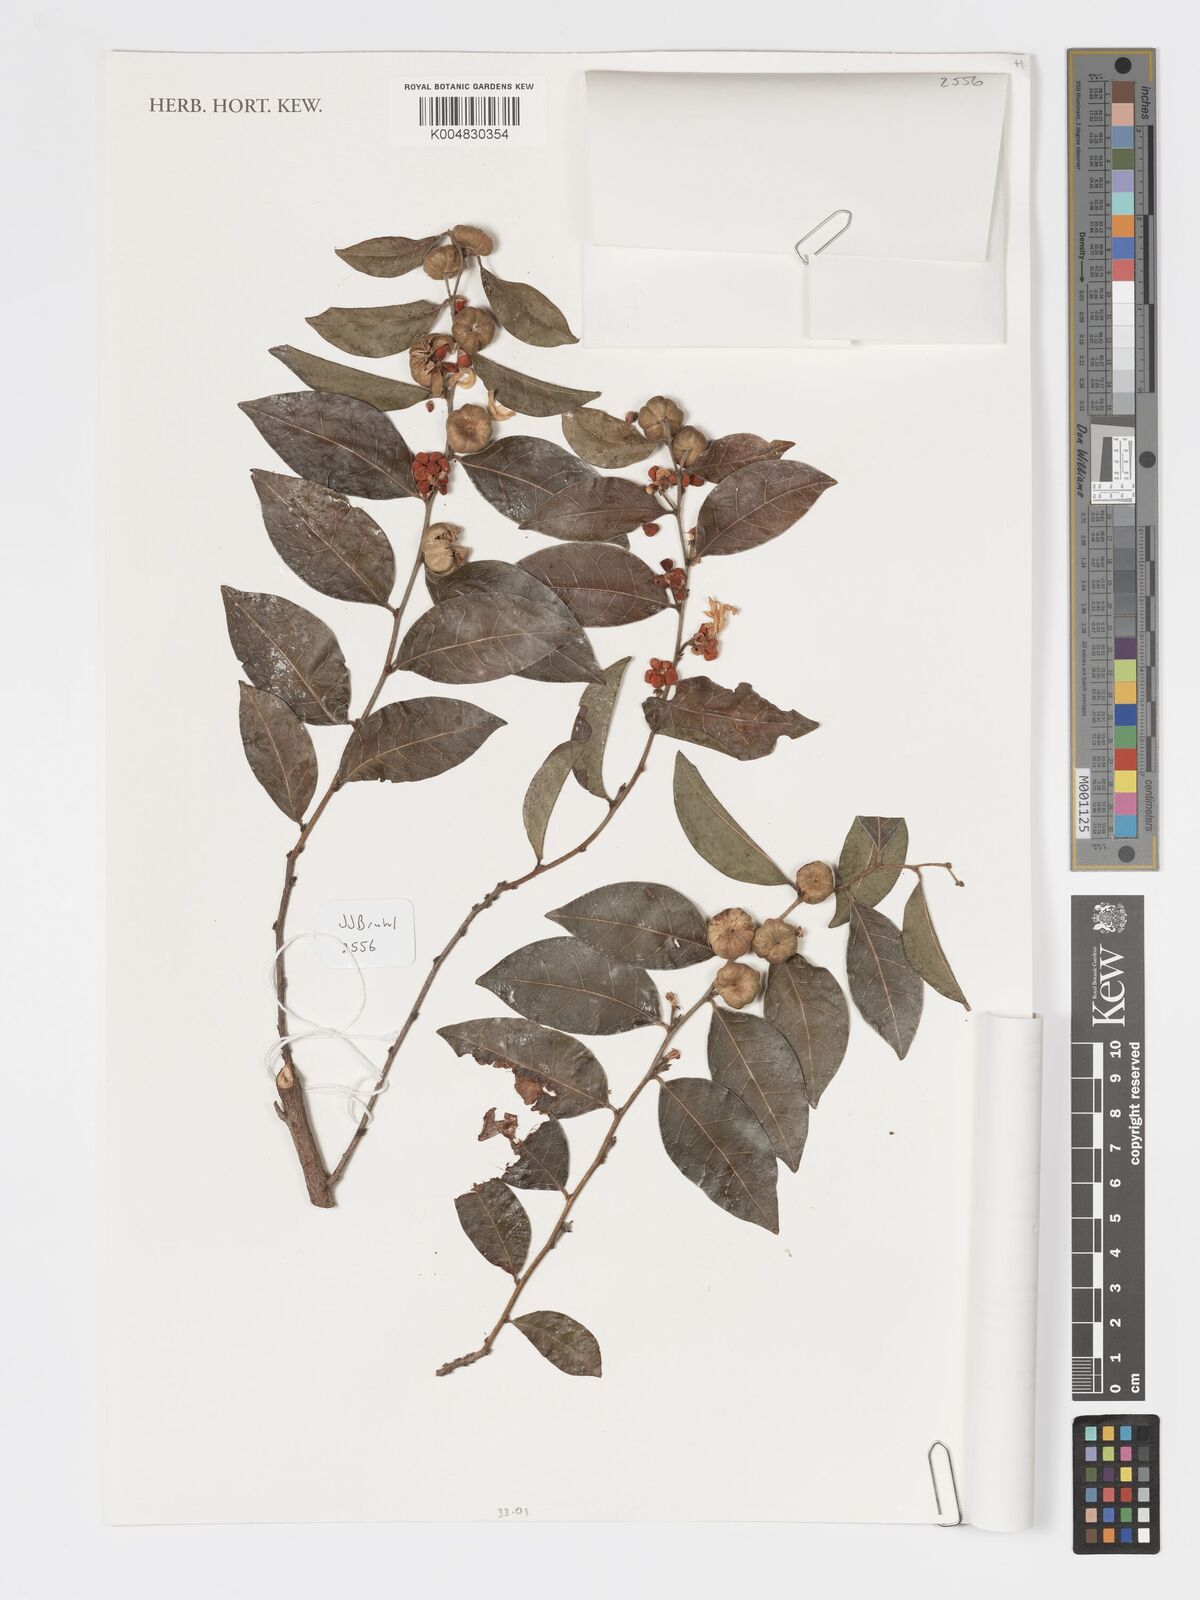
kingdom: Plantae
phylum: Tracheophyta
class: Magnoliopsida
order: Malpighiales
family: Phyllanthaceae
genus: Glochidion
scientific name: Glochidion ferdinandi
